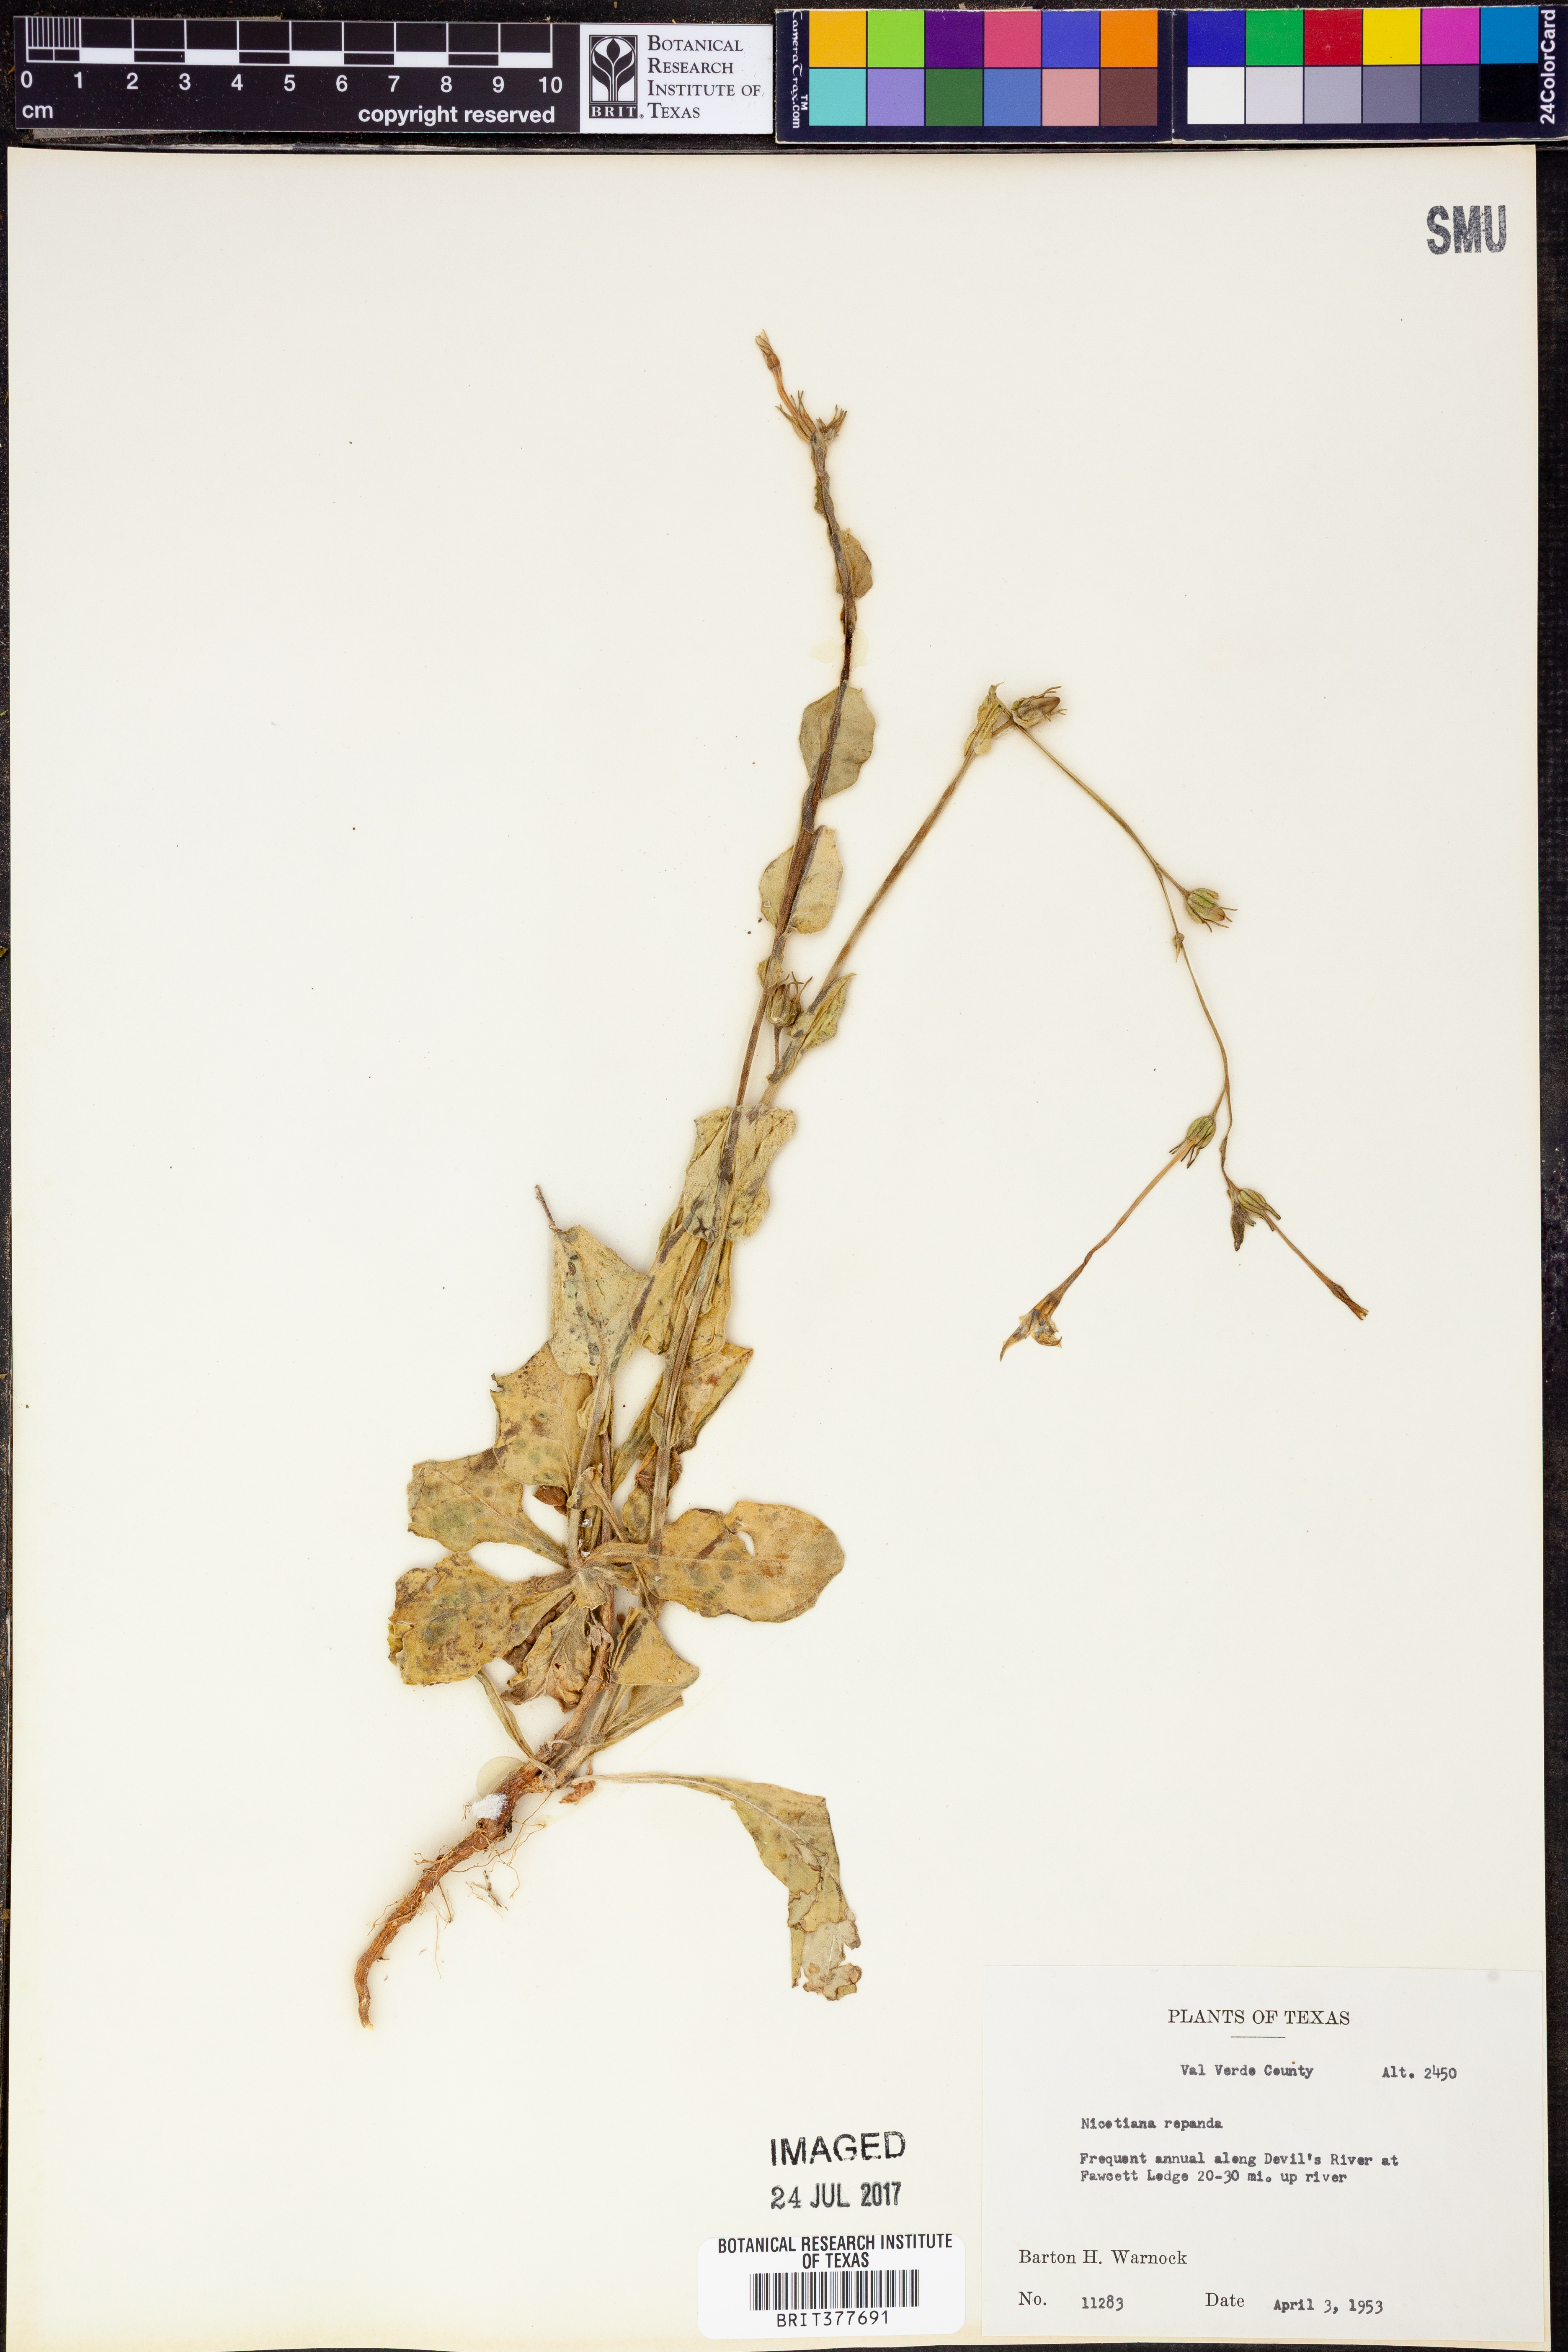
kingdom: Plantae
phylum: Tracheophyta
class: Magnoliopsida
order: Solanales
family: Solanaceae
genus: Nicotiana
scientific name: Nicotiana repanda
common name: Fiddle-leaf tobacco
